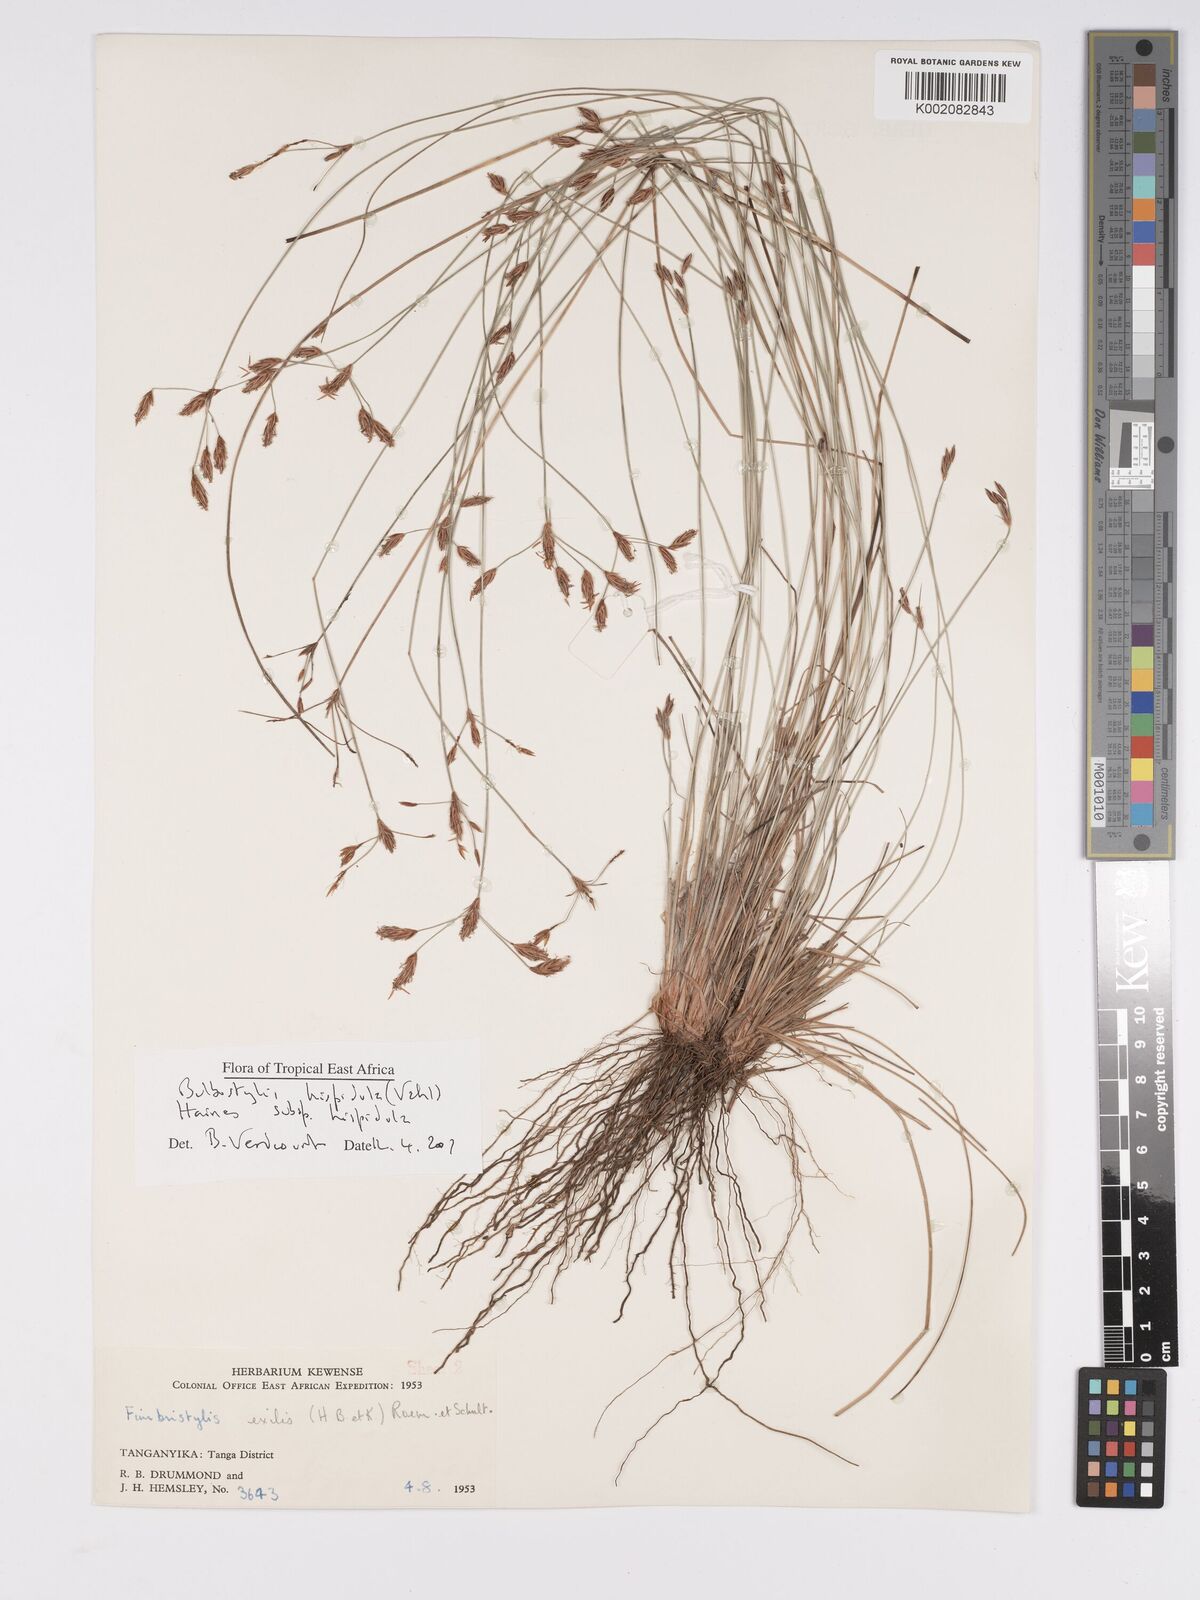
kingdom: Plantae
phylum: Tracheophyta
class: Liliopsida
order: Poales
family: Cyperaceae
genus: Bulbostylis
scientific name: Bulbostylis hispidula
